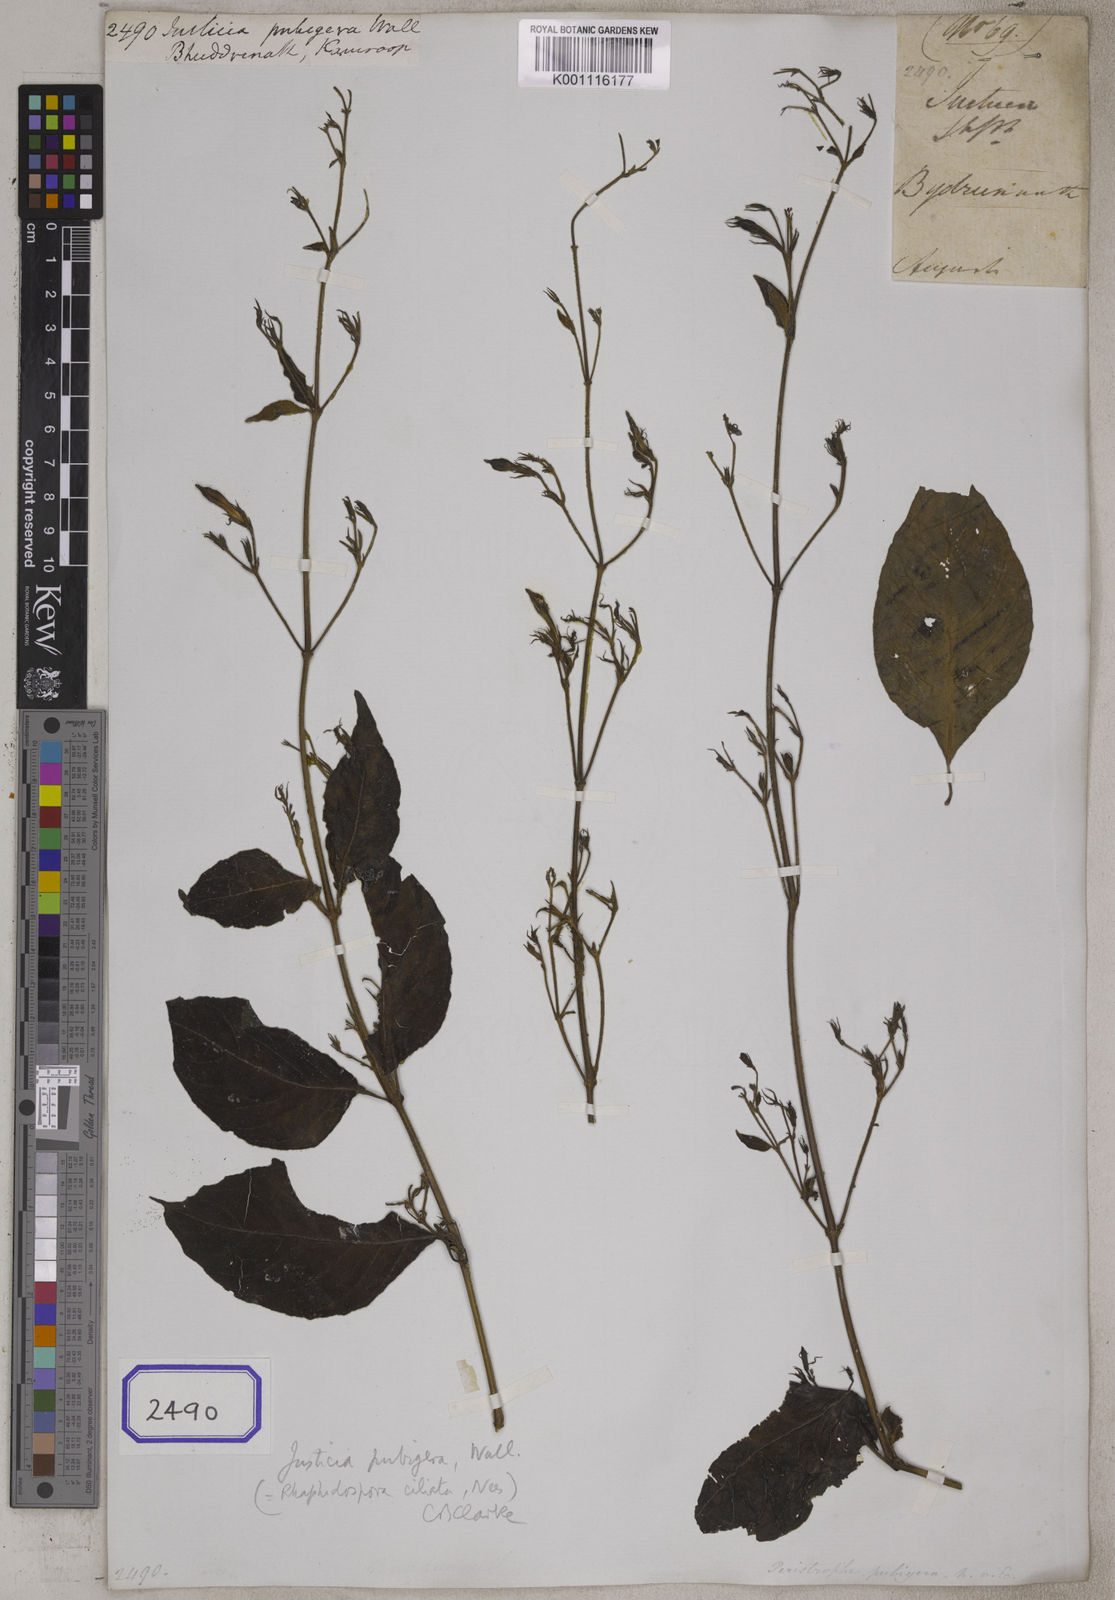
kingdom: Plantae
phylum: Tracheophyta
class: Magnoliopsida
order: Lamiales
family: Acanthaceae
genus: Justicia
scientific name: Justicia
